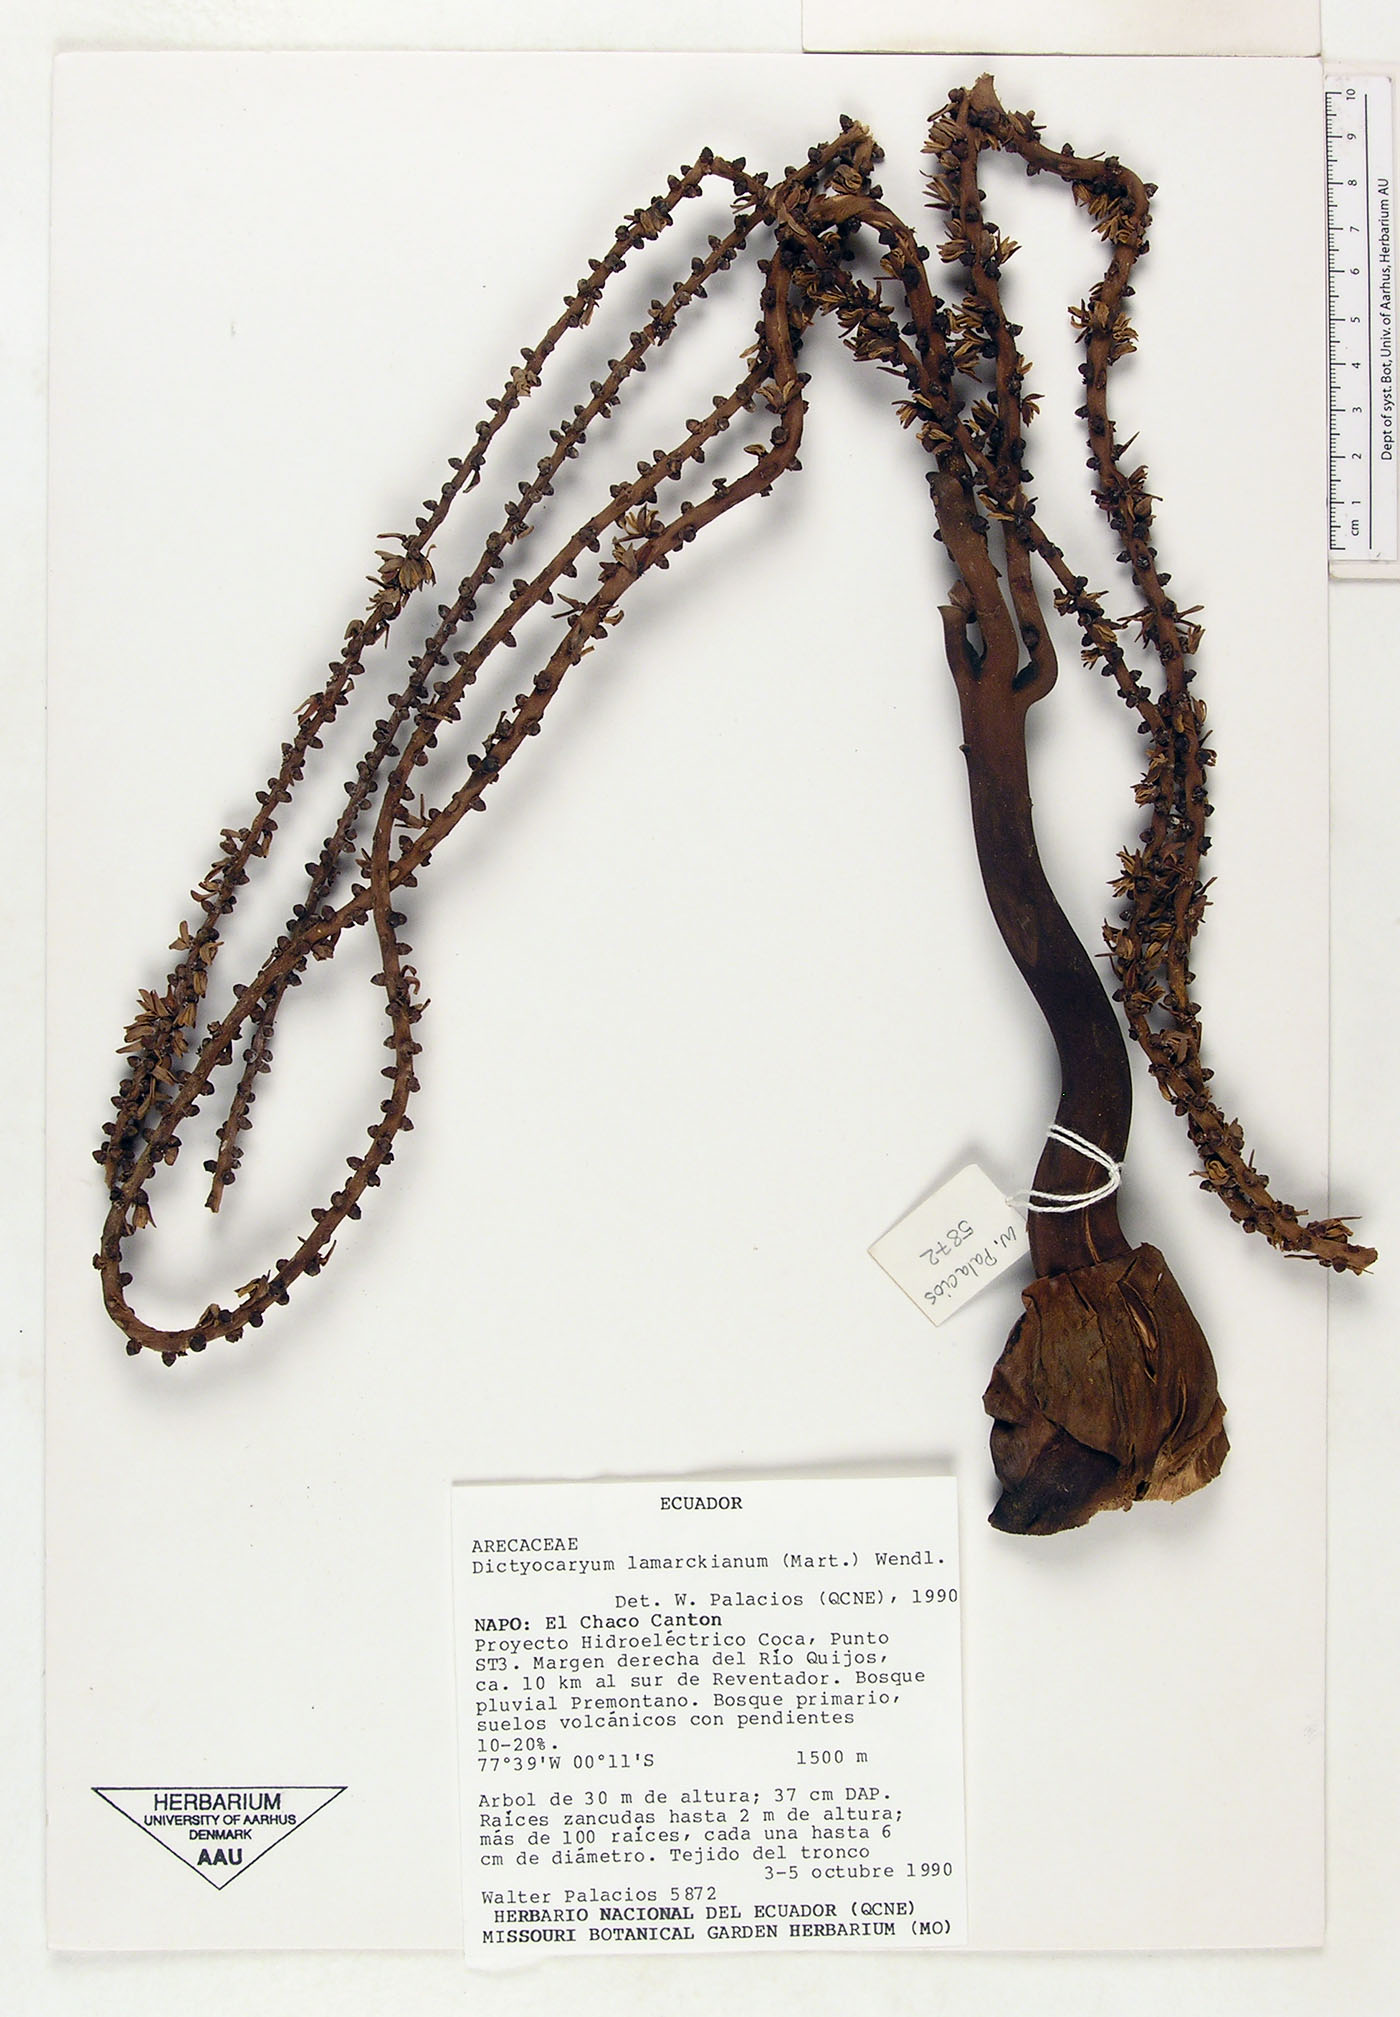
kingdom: Plantae
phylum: Tracheophyta
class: Liliopsida
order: Arecales
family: Arecaceae
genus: Dictyocaryum
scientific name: Dictyocaryum lamarckianum
